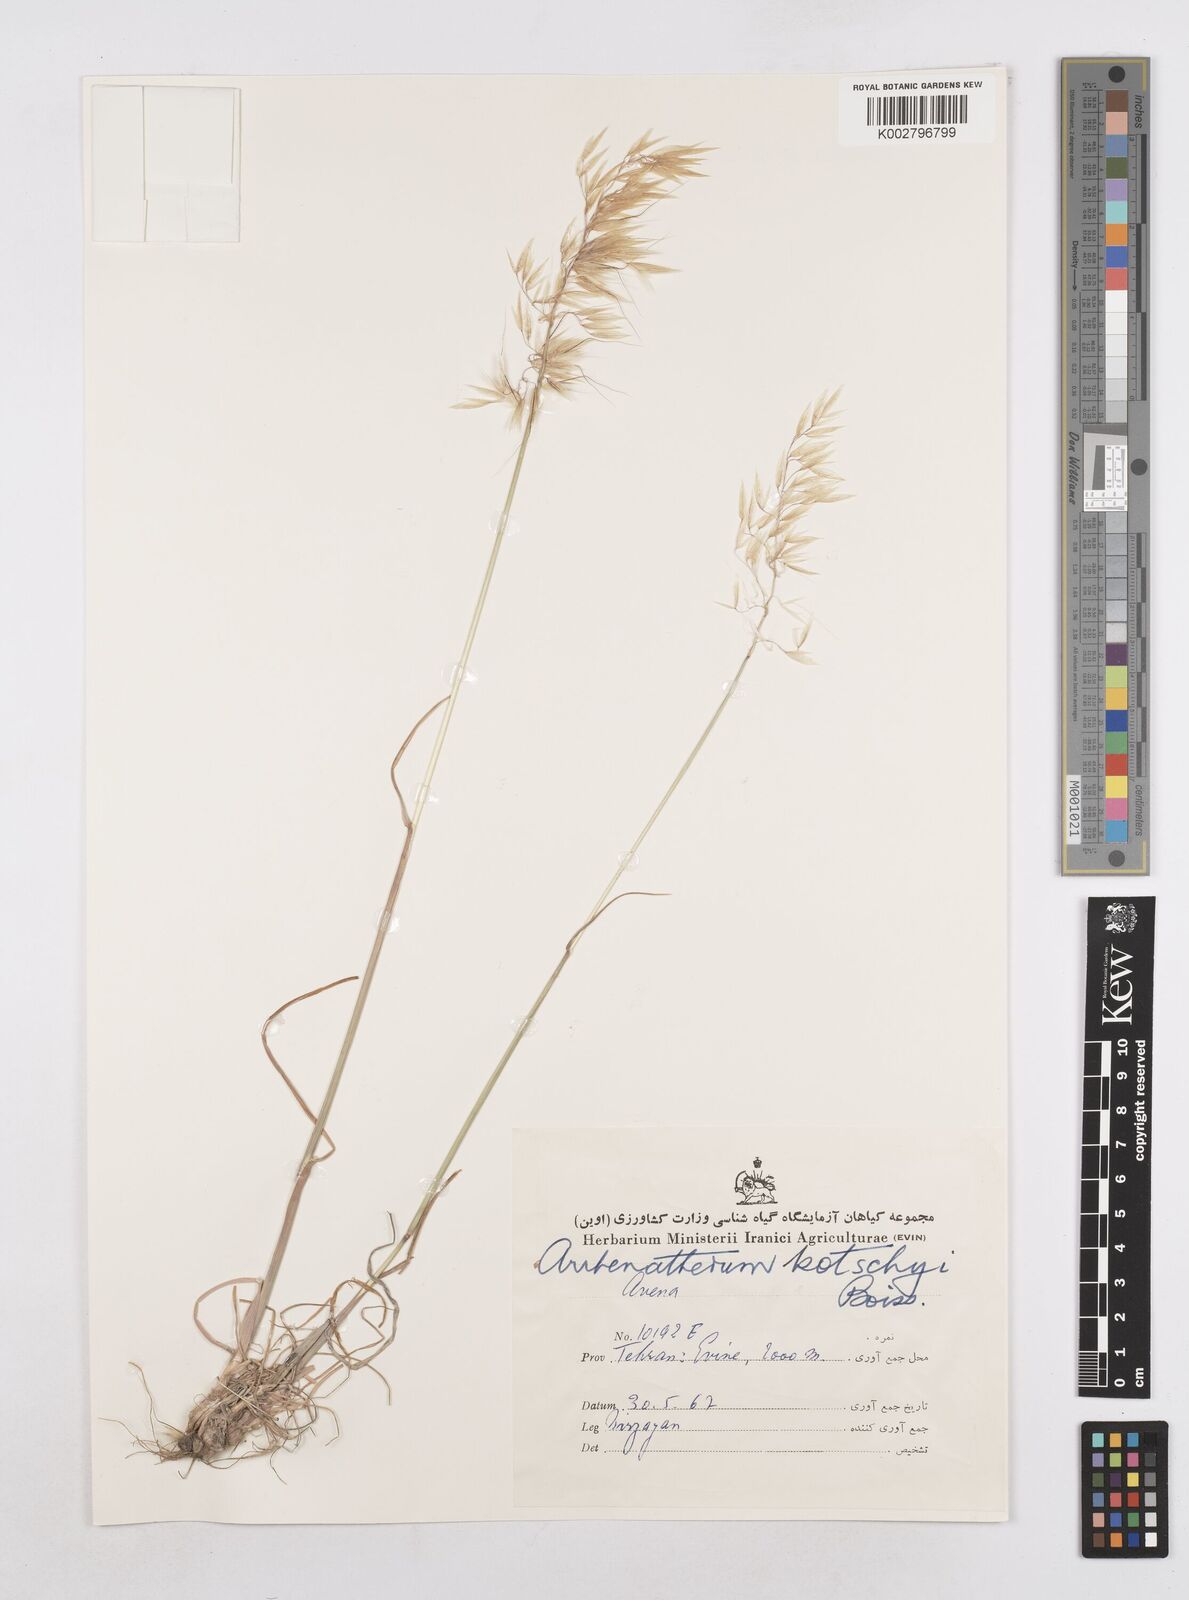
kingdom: Plantae
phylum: Tracheophyta
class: Liliopsida
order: Poales
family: Poaceae
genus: Arrhenatherum
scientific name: Arrhenatherum kotschyi
